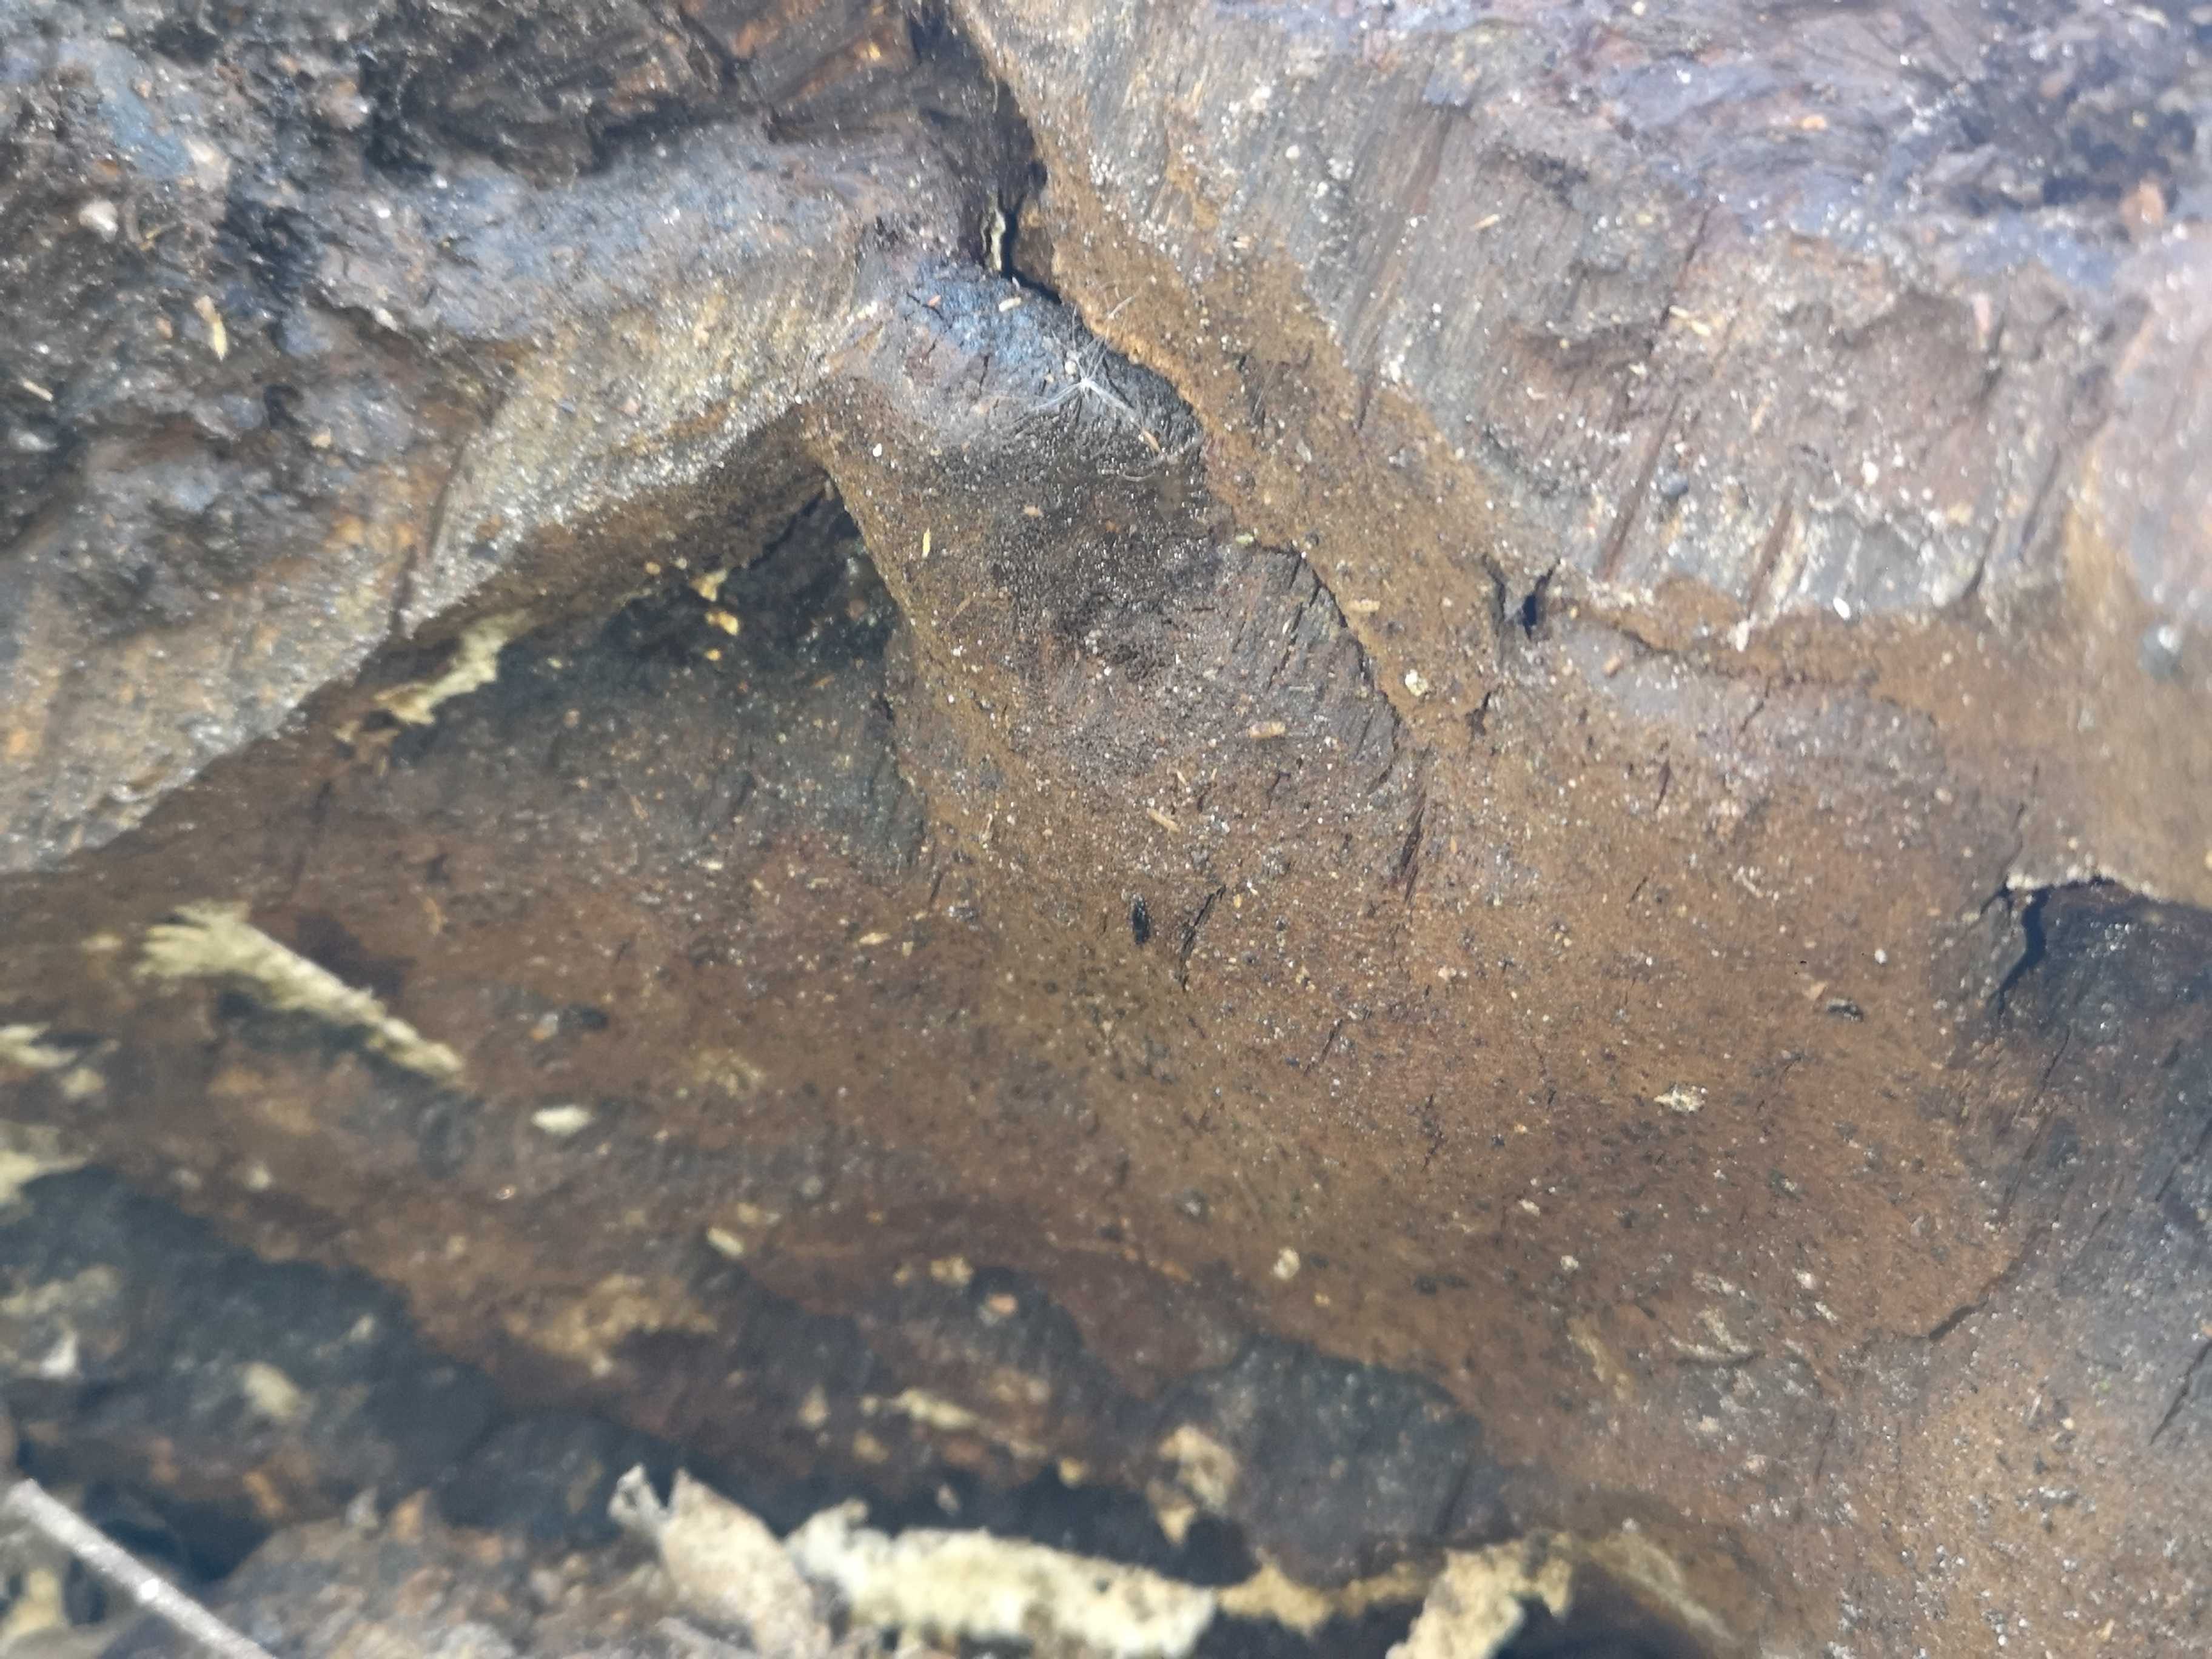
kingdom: Fungi
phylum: Basidiomycota
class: Agaricomycetes
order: Hymenochaetales
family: Hymenochaetaceae
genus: Pseudoinonotus
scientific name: Pseudoinonotus dryadeus
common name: ege-spejlporesvamp
